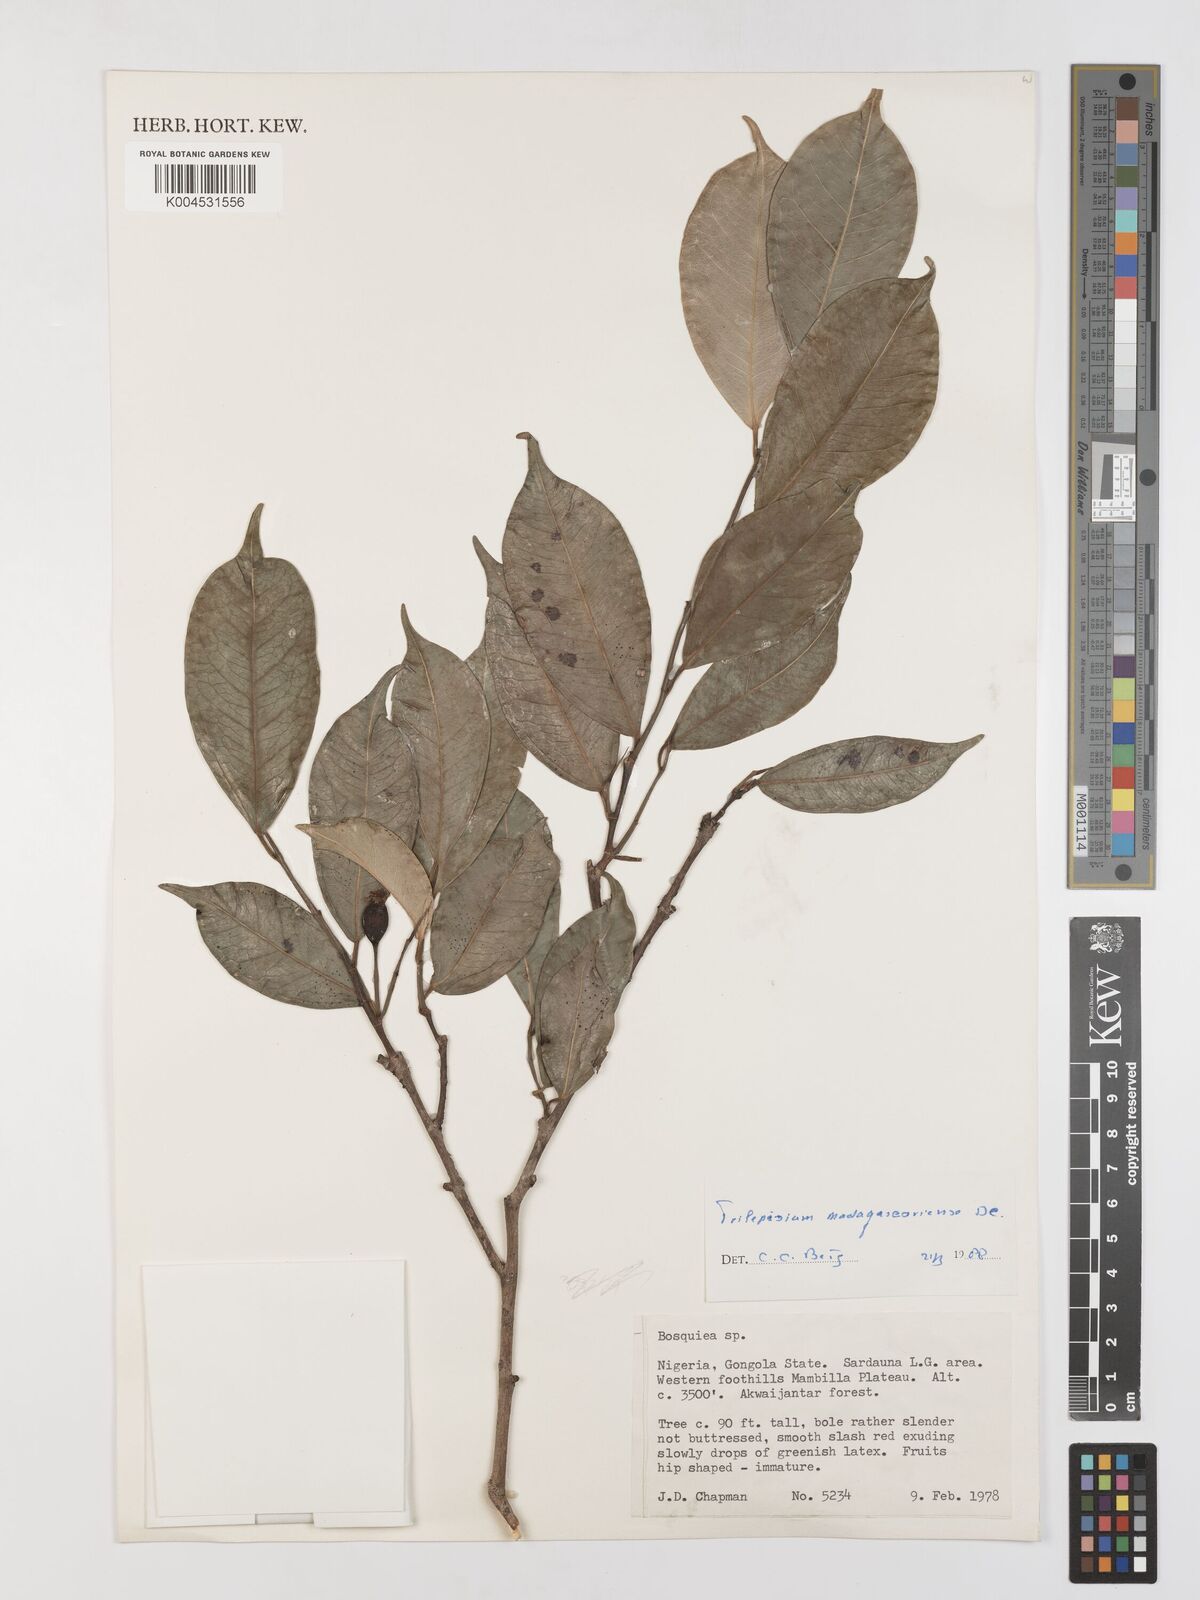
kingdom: Plantae
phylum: Tracheophyta
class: Magnoliopsida
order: Rosales
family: Moraceae
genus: Trilepisium
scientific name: Trilepisium madagascariense
